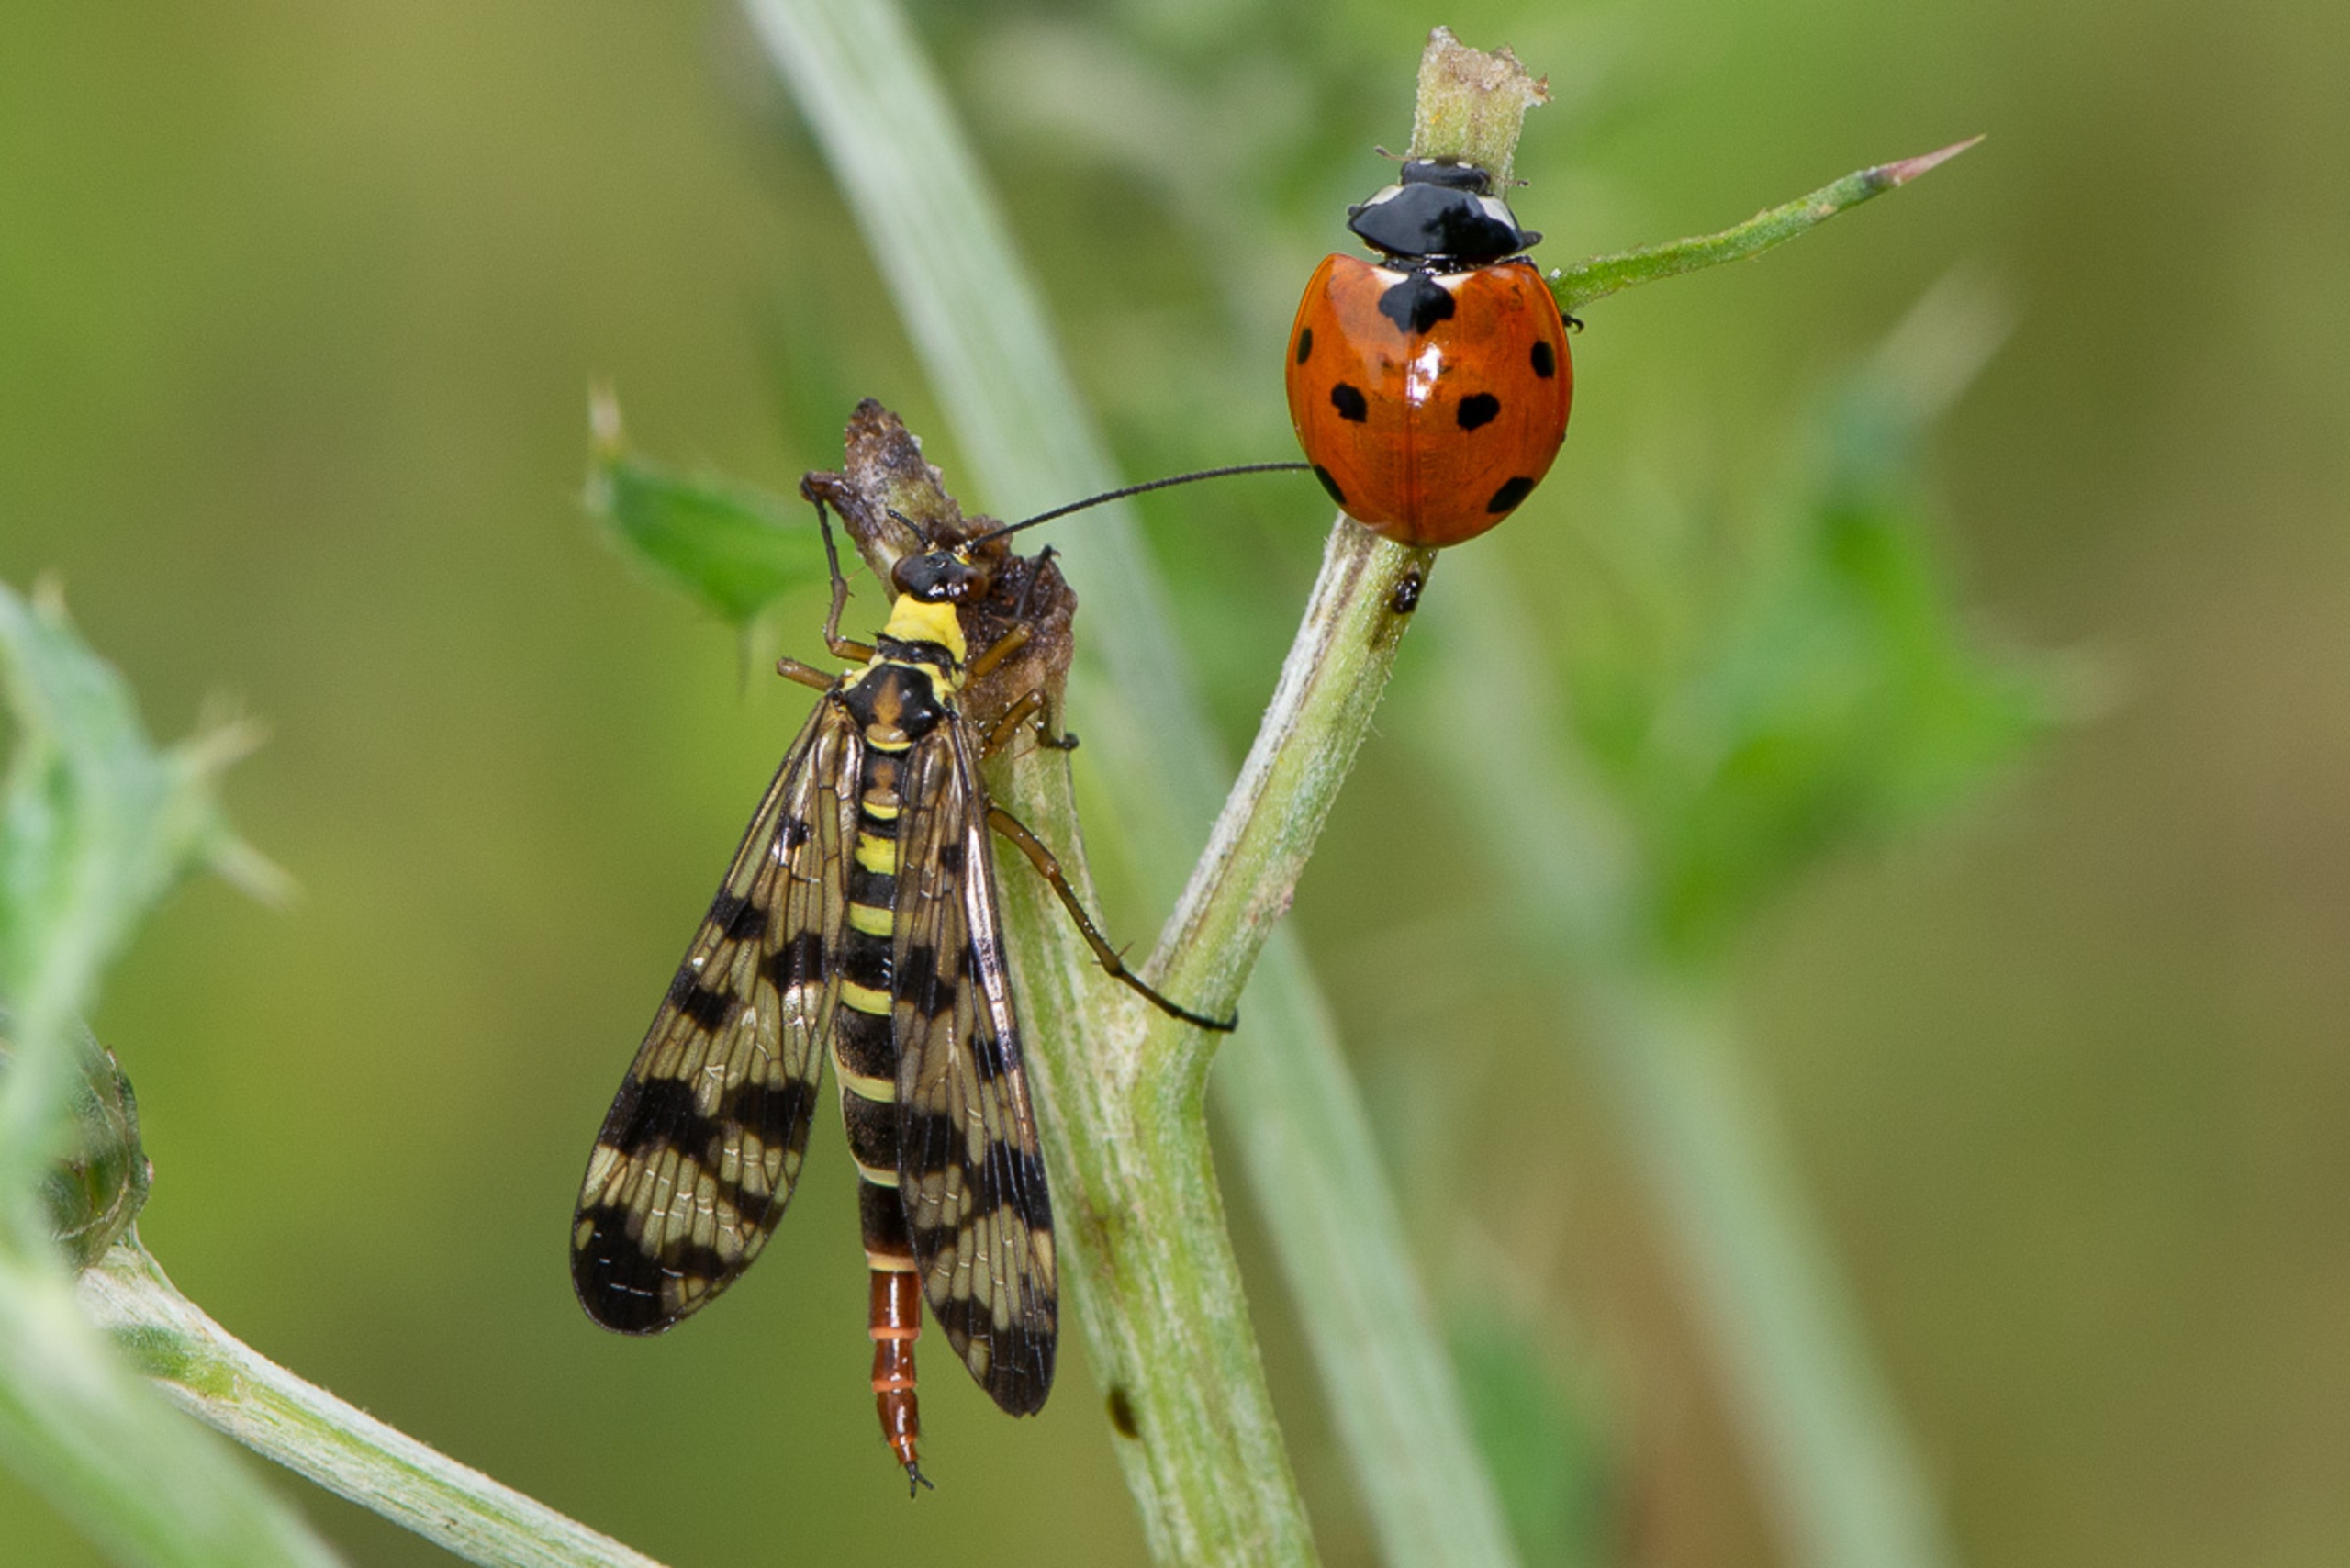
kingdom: Animalia
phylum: Arthropoda
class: Insecta
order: Coleoptera
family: Coccinellidae
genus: Coccinella
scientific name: Coccinella septempunctata
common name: Syvplettet mariehøne
